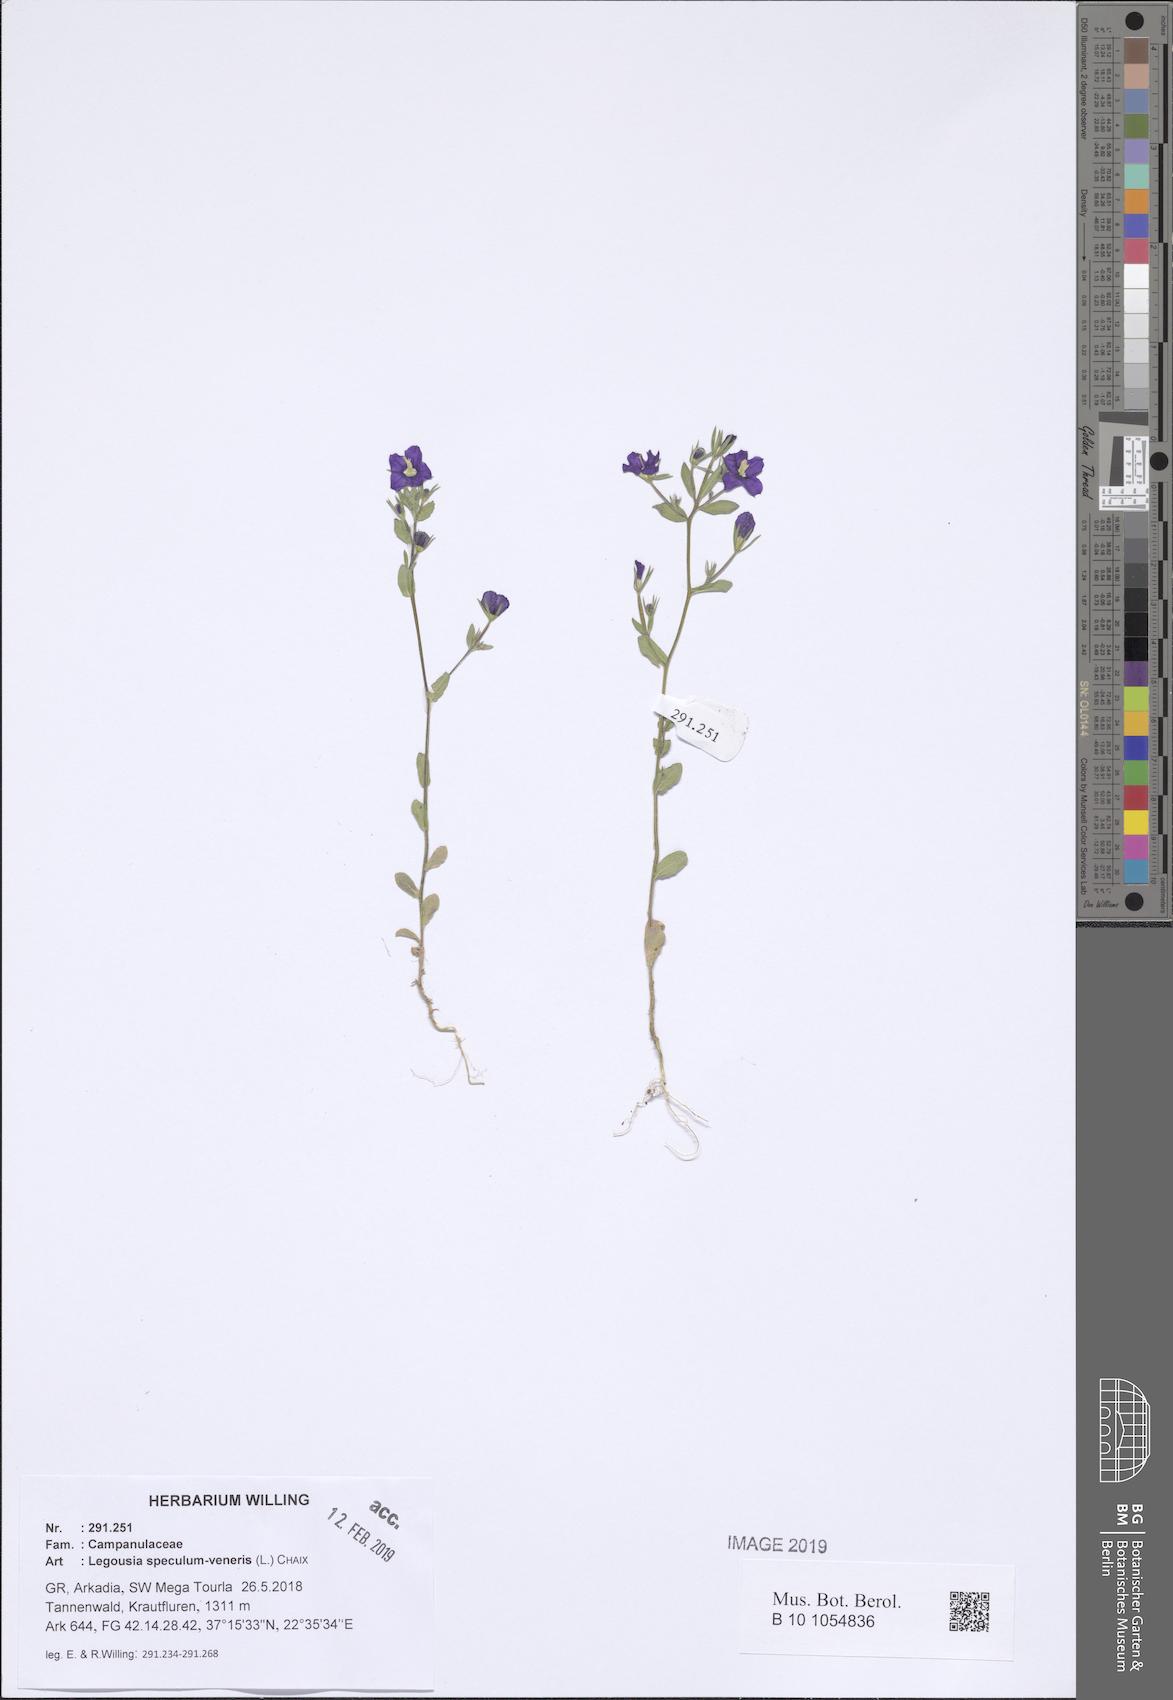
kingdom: Plantae
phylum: Tracheophyta
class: Magnoliopsida
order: Asterales
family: Campanulaceae
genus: Legousia
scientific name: Legousia speculum-veneris
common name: Large venus's-looking-glass
